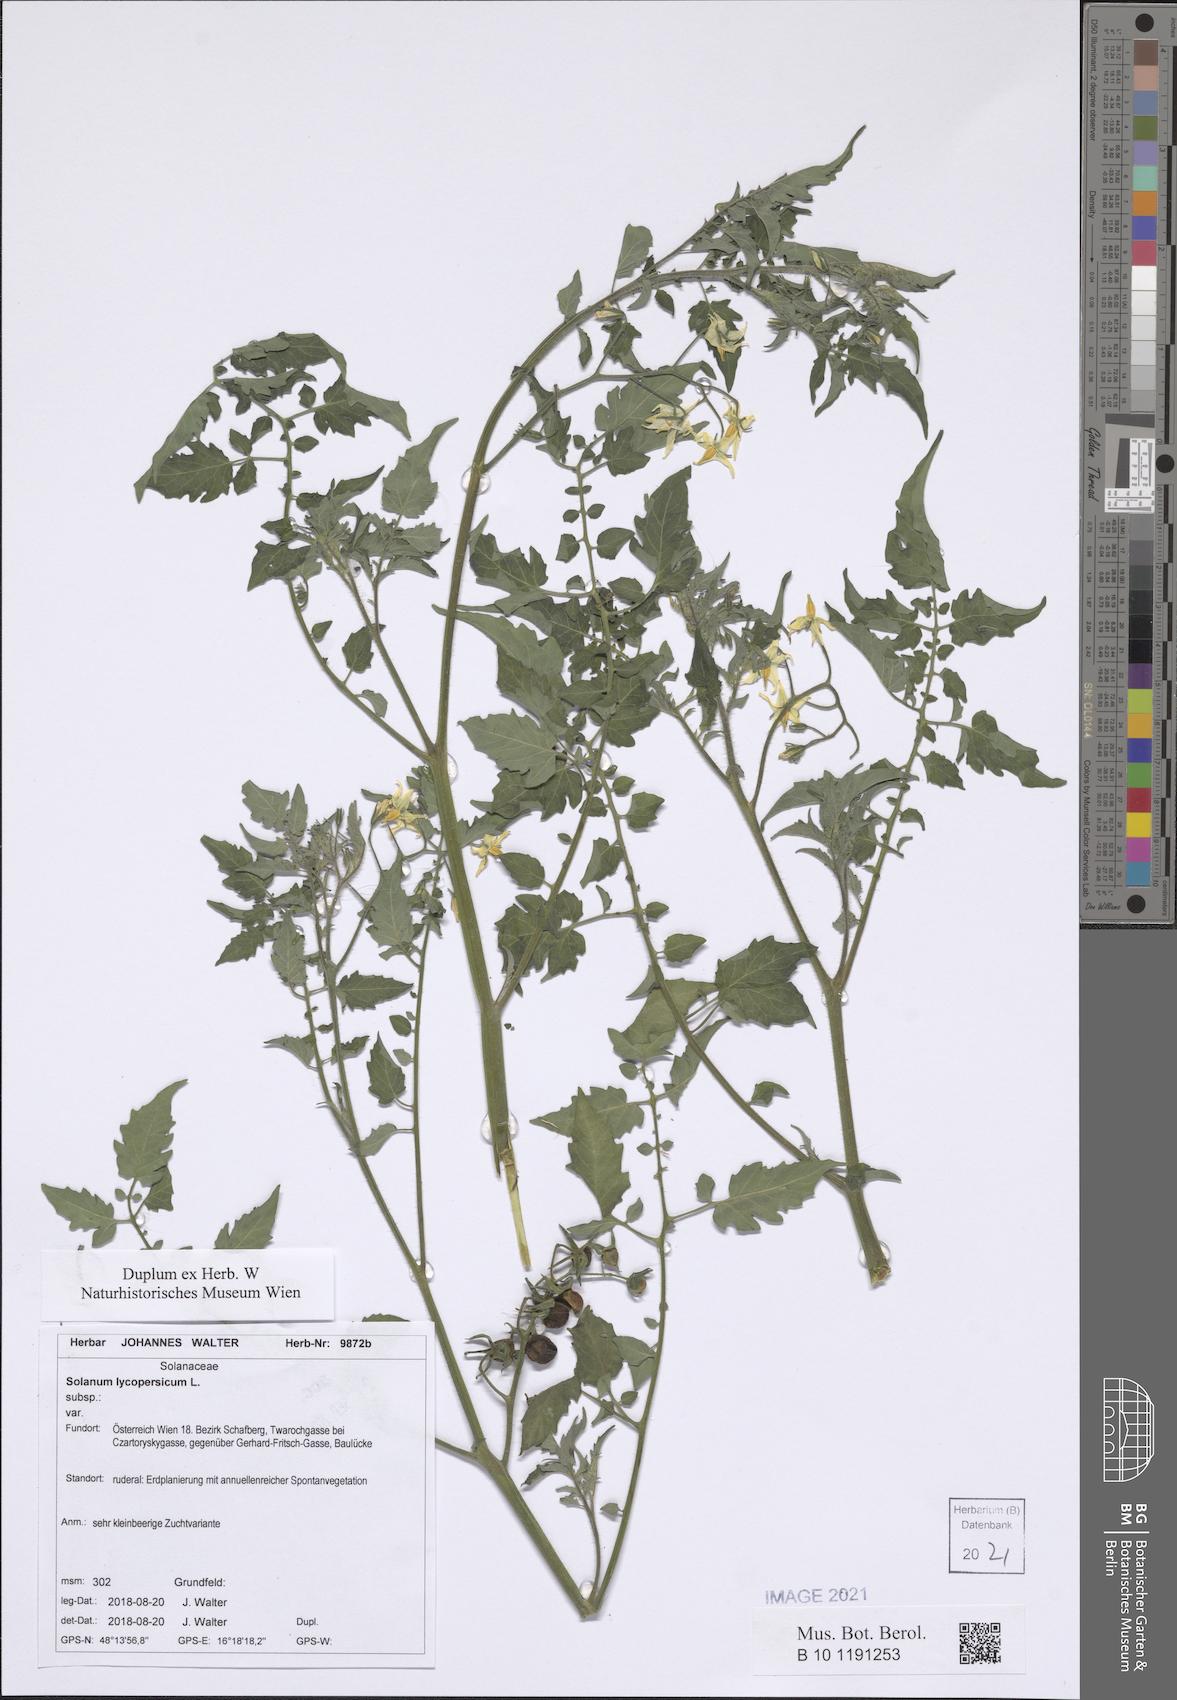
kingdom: Plantae
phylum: Tracheophyta
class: Magnoliopsida
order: Solanales
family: Solanaceae
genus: Solanum
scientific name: Solanum lycopersicum
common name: Garden tomato
